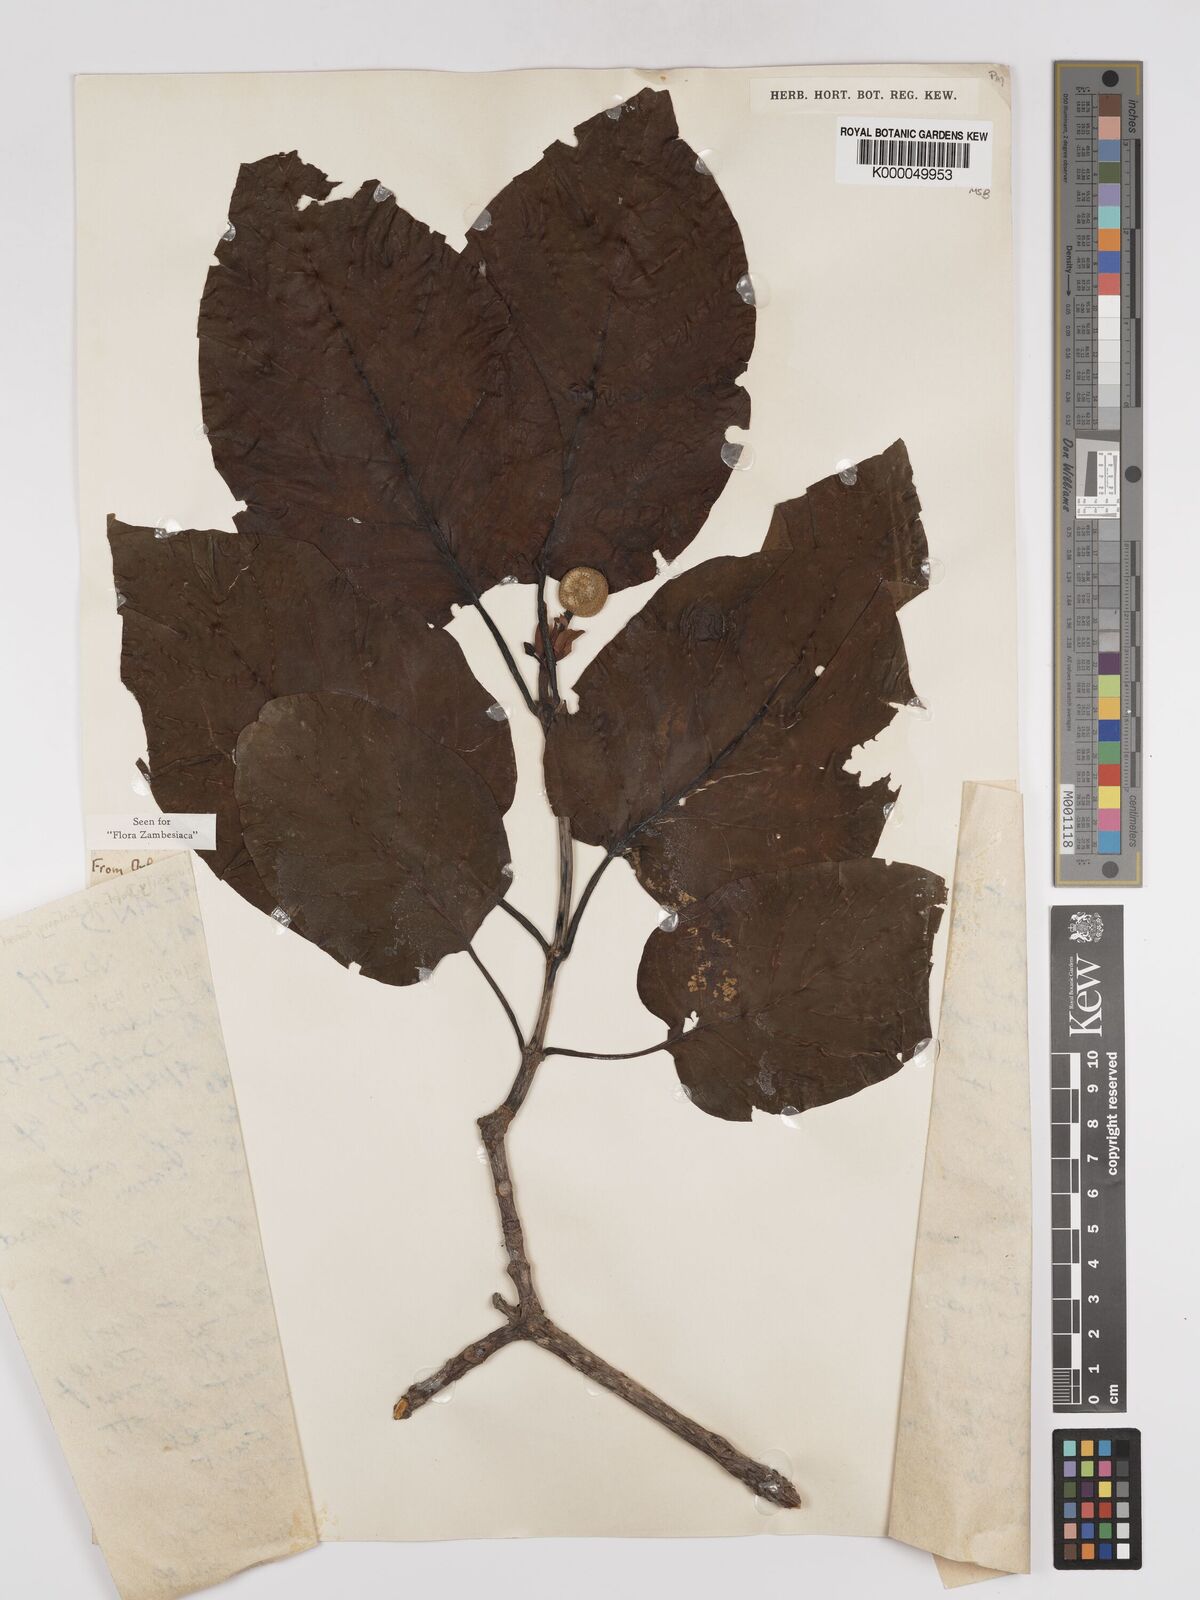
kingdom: Plantae
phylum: Tracheophyta
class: Magnoliopsida
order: Gentianales
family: Rubiaceae
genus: Nauclea
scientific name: Nauclea
